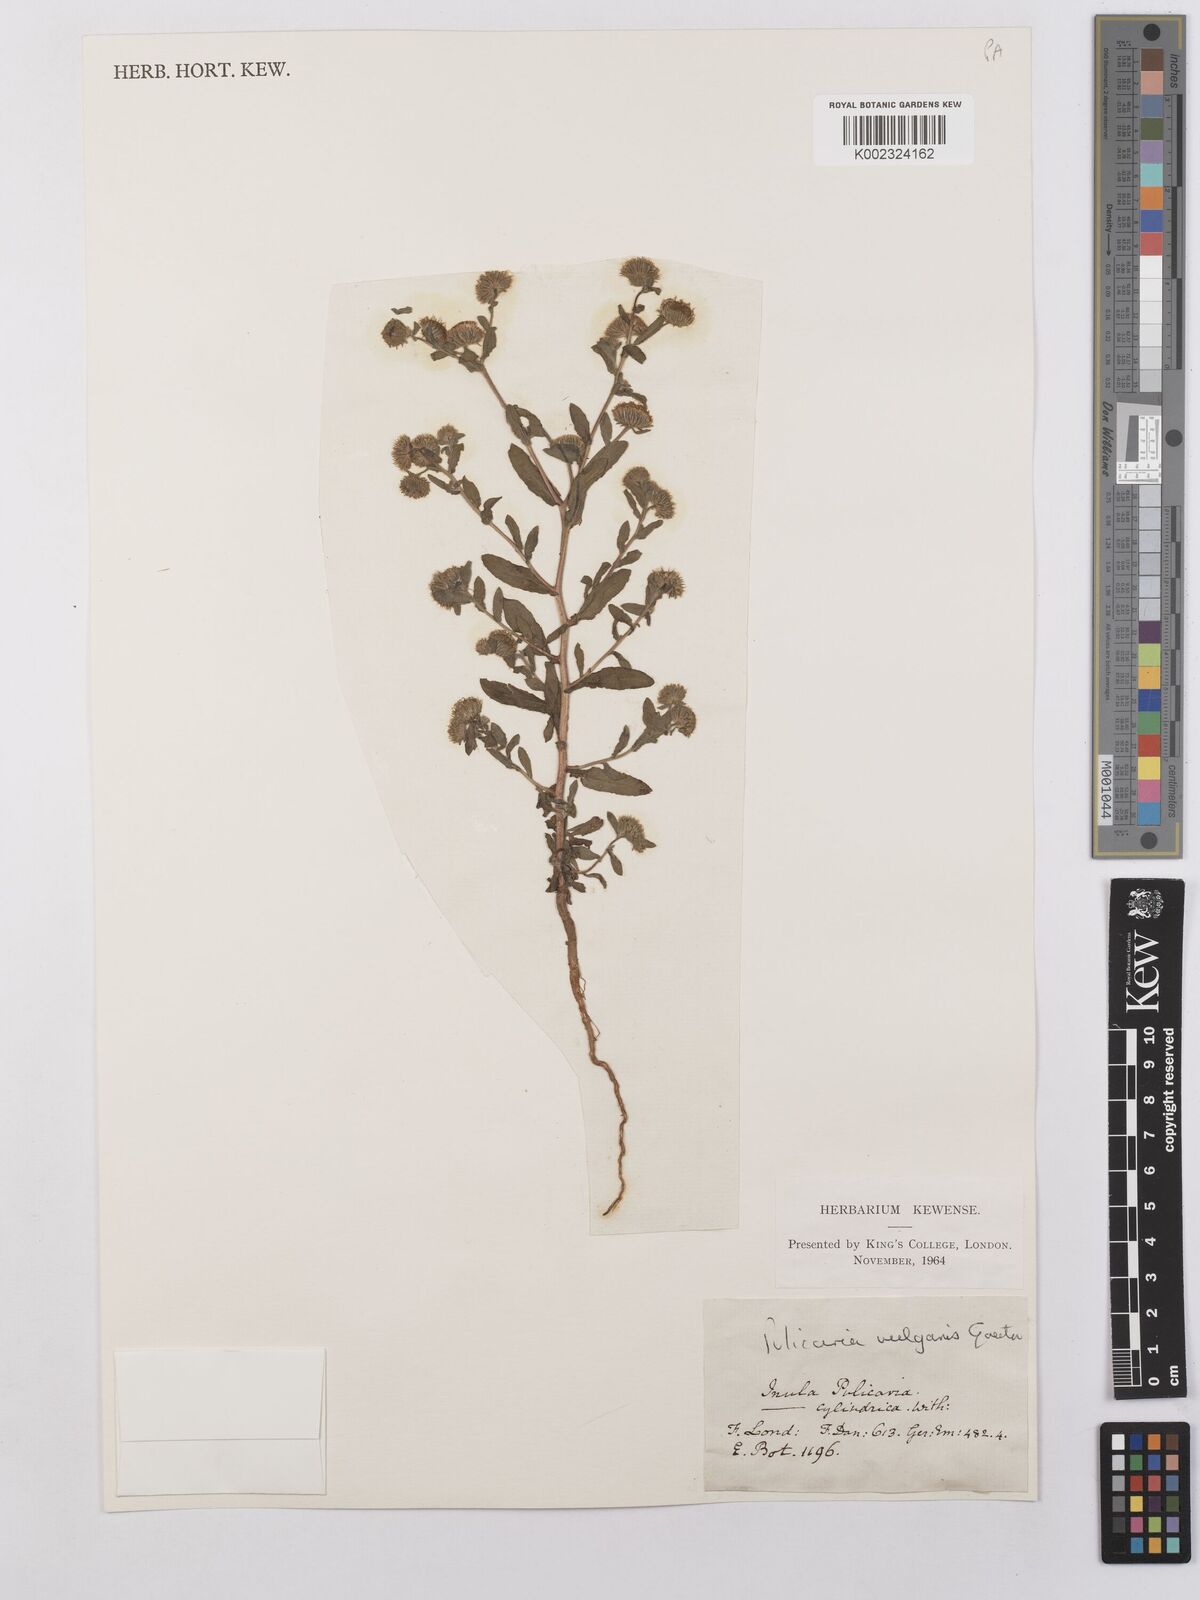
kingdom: Plantae
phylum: Tracheophyta
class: Magnoliopsida
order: Asterales
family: Asteraceae
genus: Pulicaria
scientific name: Pulicaria vulgaris
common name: Small fleabane
